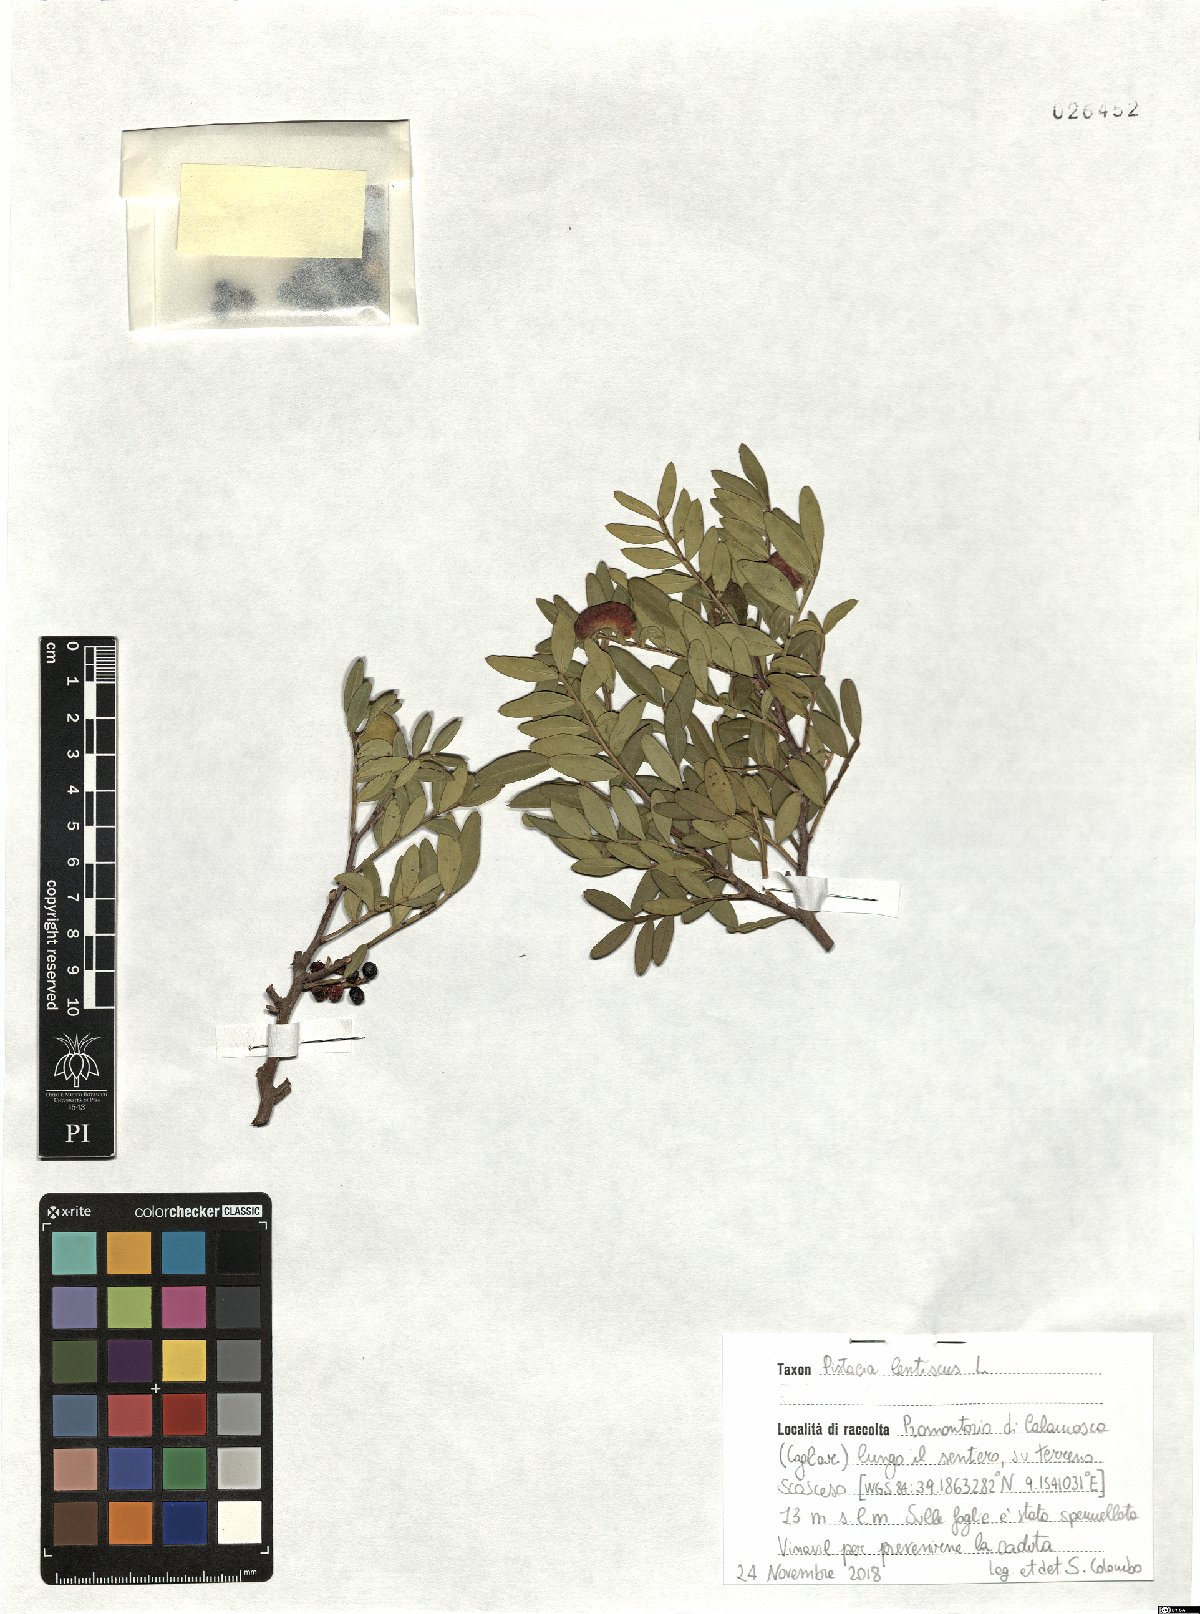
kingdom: Plantae
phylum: Tracheophyta
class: Magnoliopsida
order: Sapindales
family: Anacardiaceae
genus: Pistacia
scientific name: Pistacia lentiscus
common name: Lentisk
